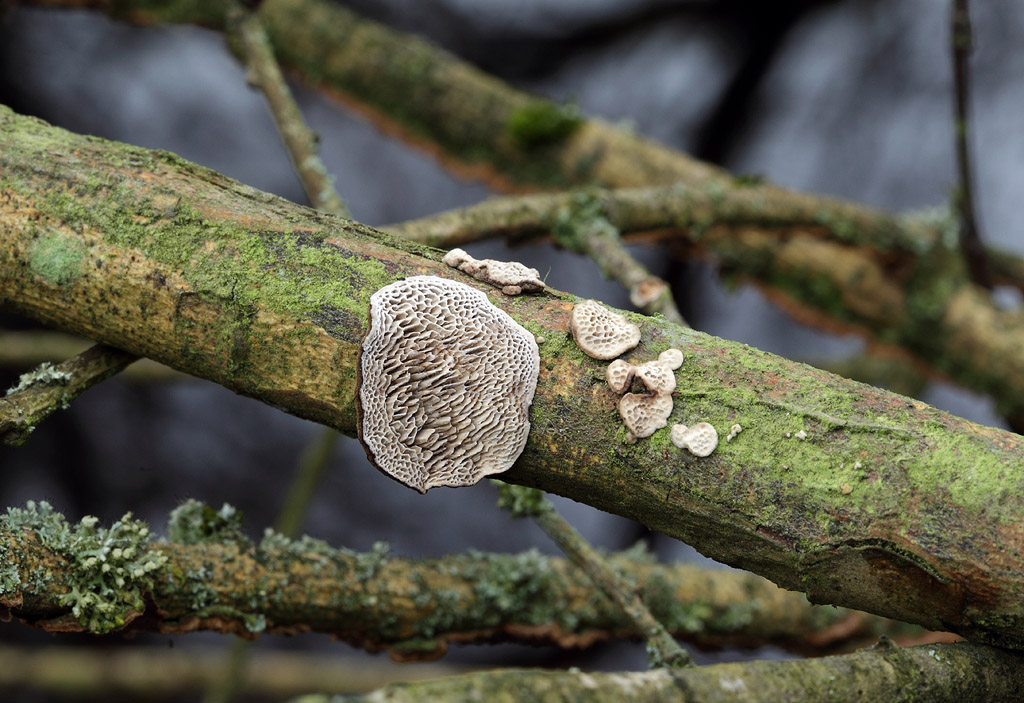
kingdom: Fungi
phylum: Basidiomycota
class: Agaricomycetes
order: Polyporales
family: Polyporaceae
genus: Podofomes
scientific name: Podofomes mollis
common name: blød begporesvamp
